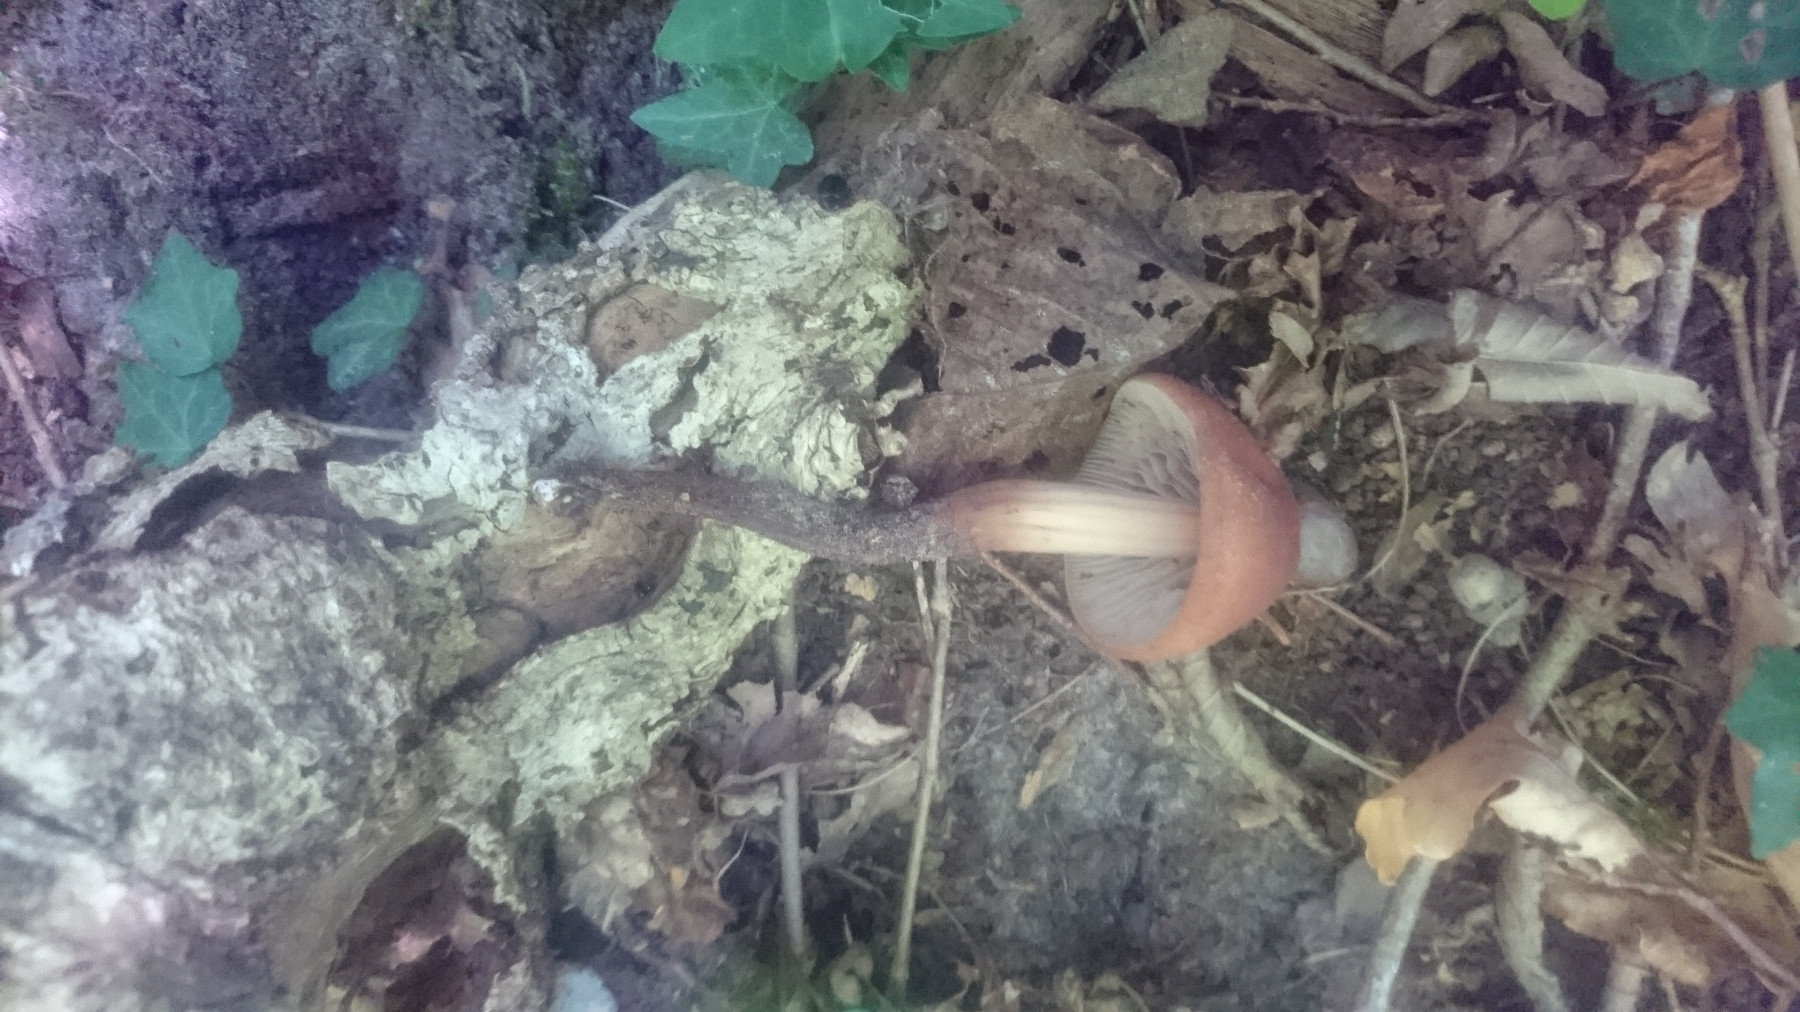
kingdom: Fungi
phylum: Basidiomycota
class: Agaricomycetes
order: Agaricales
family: Omphalotaceae
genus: Gymnopus
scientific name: Gymnopus fusipes
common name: tenstokket fladhat
